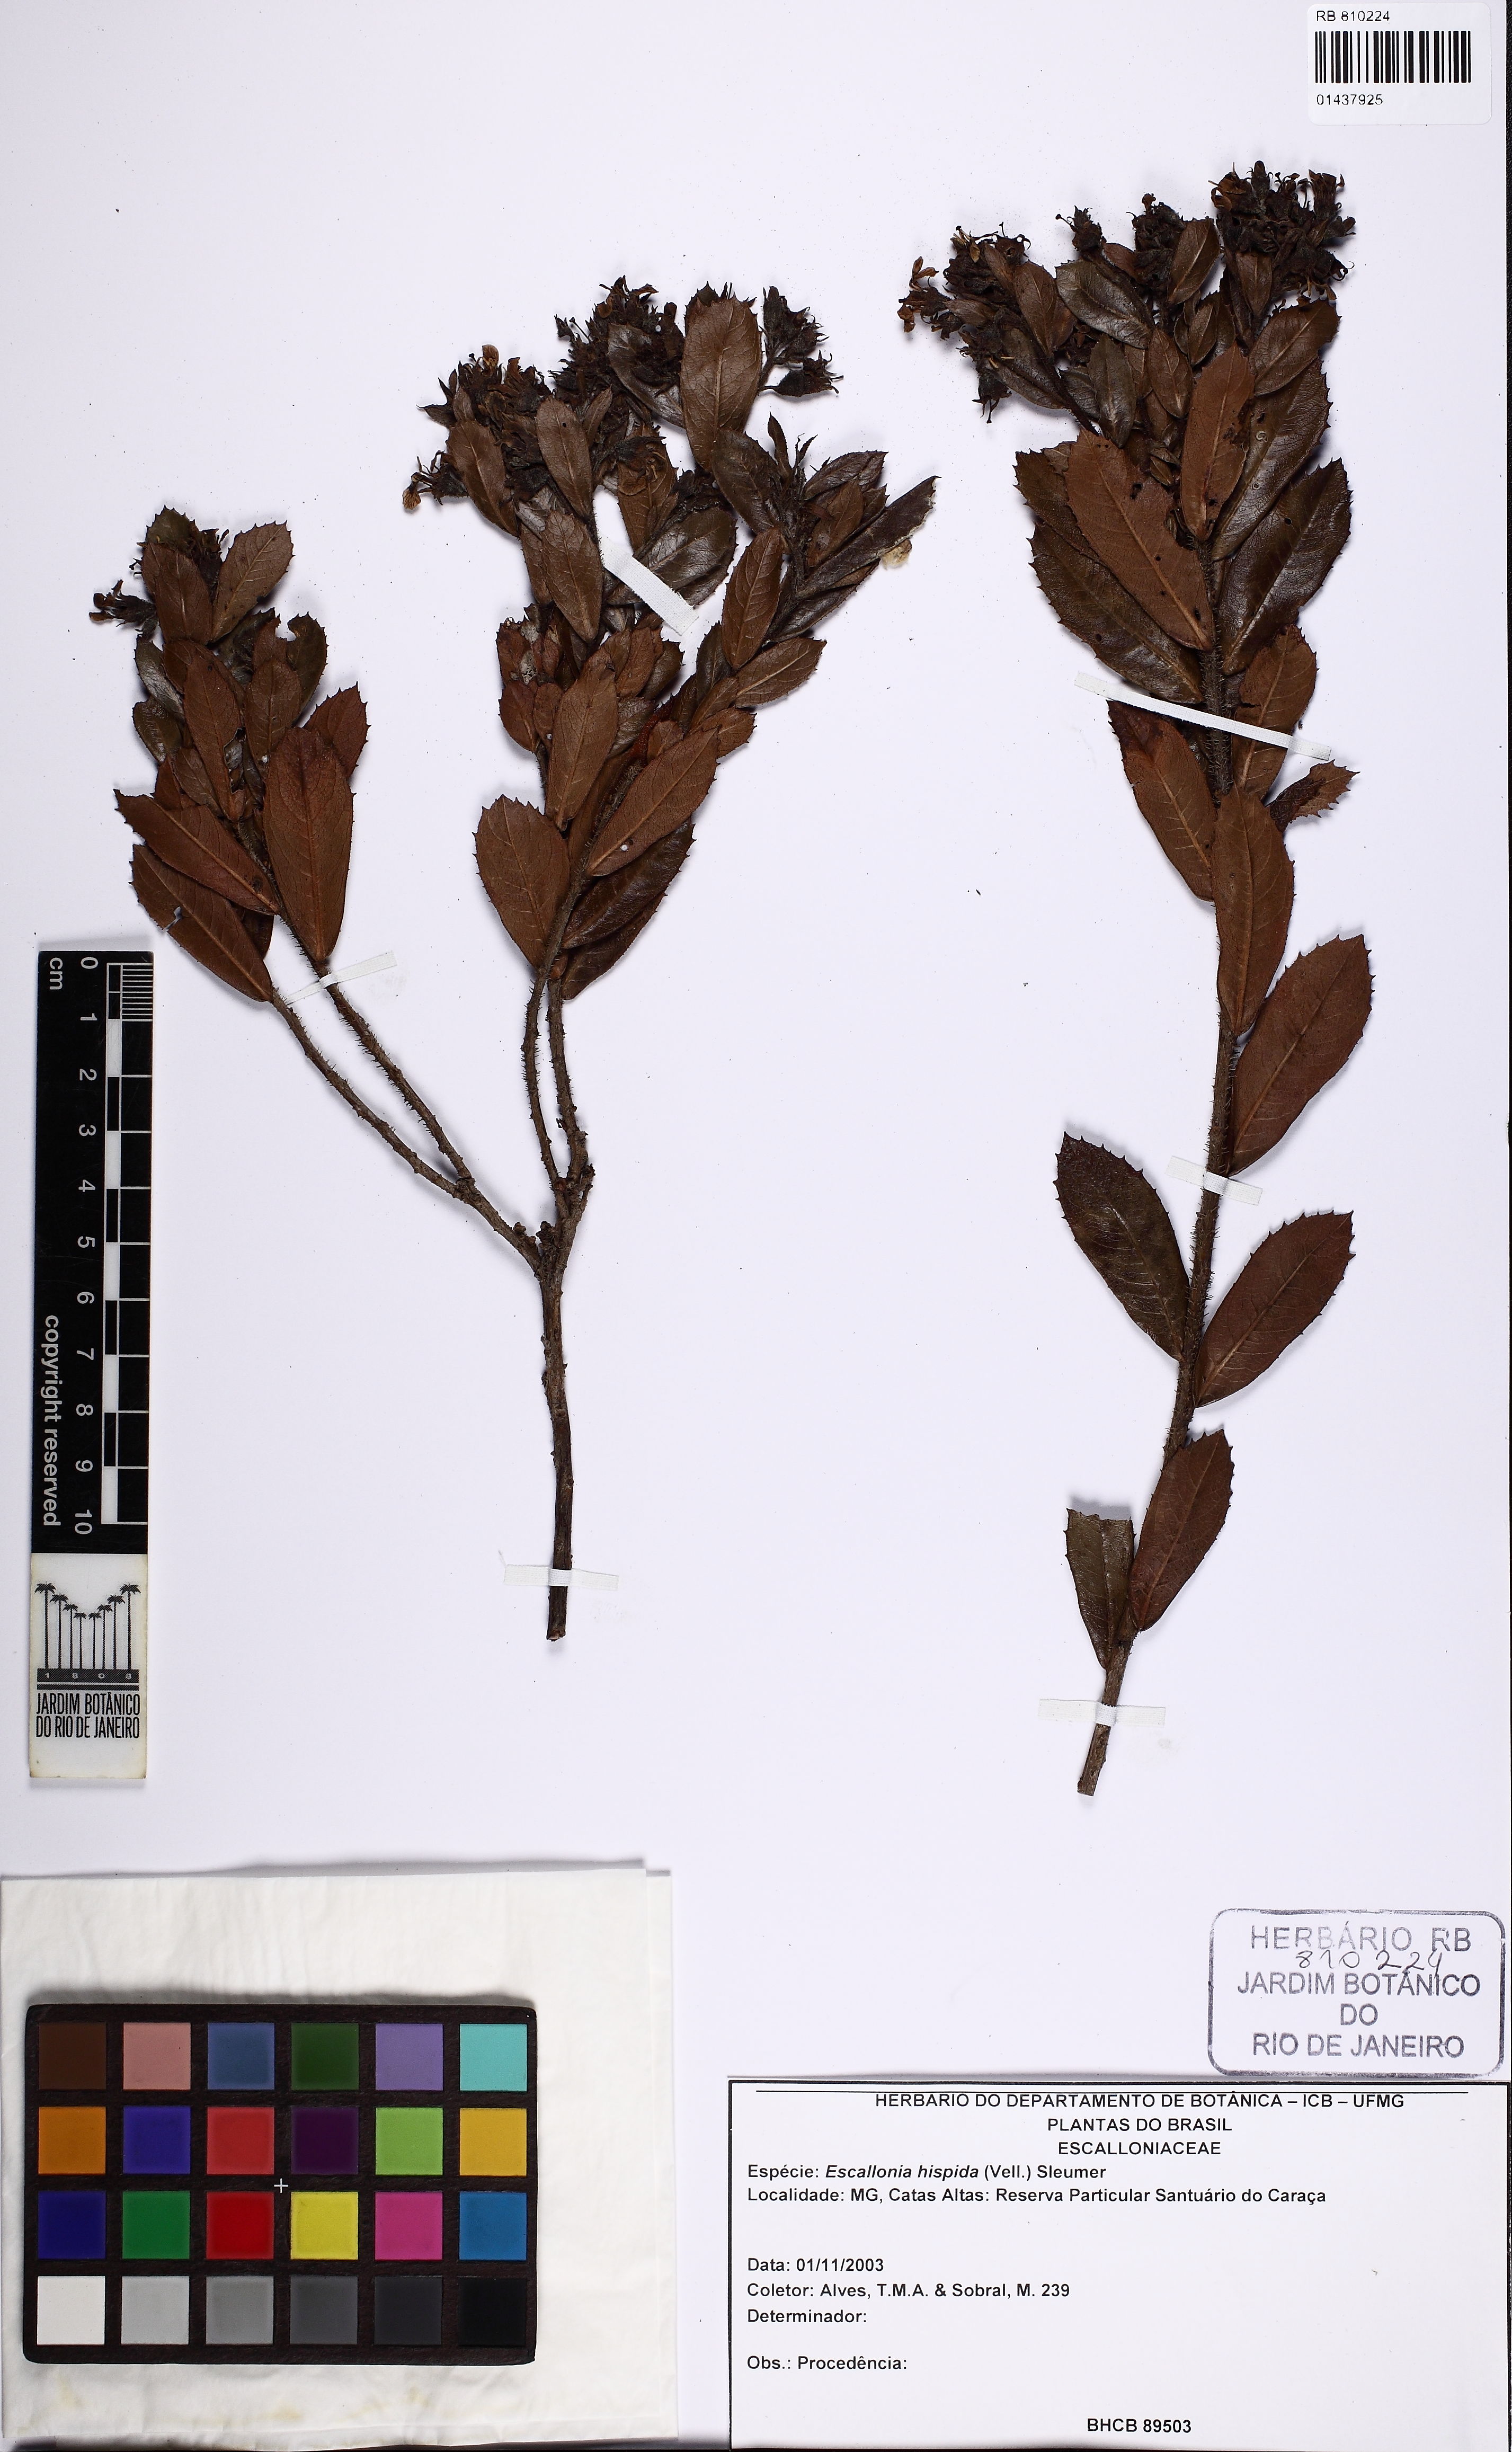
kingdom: Plantae
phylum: Tracheophyta
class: Magnoliopsida
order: Escalloniales
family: Escalloniaceae
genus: Escallonia
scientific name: Escallonia hispida
